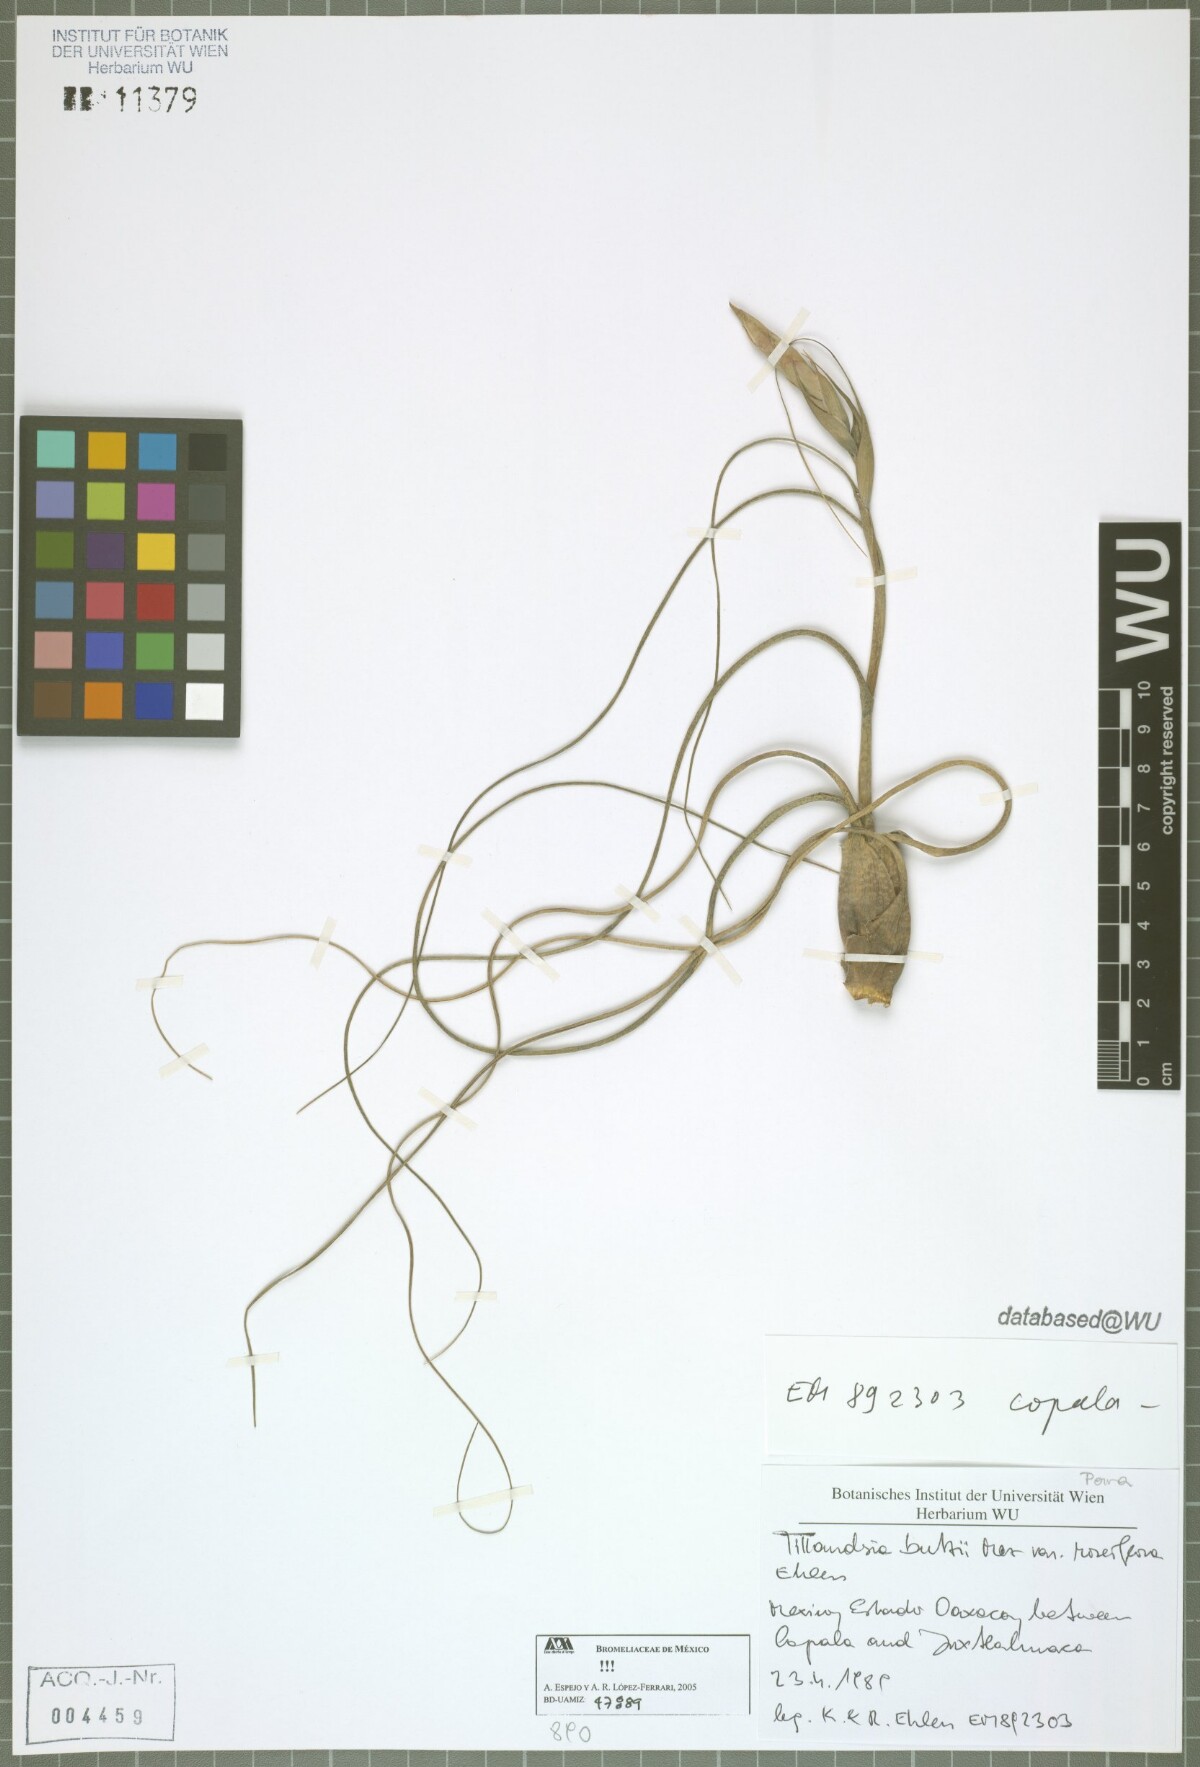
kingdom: Plantae
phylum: Tracheophyta
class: Liliopsida
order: Poales
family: Bromeliaceae
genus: Tillandsia
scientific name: Tillandsia butzii
